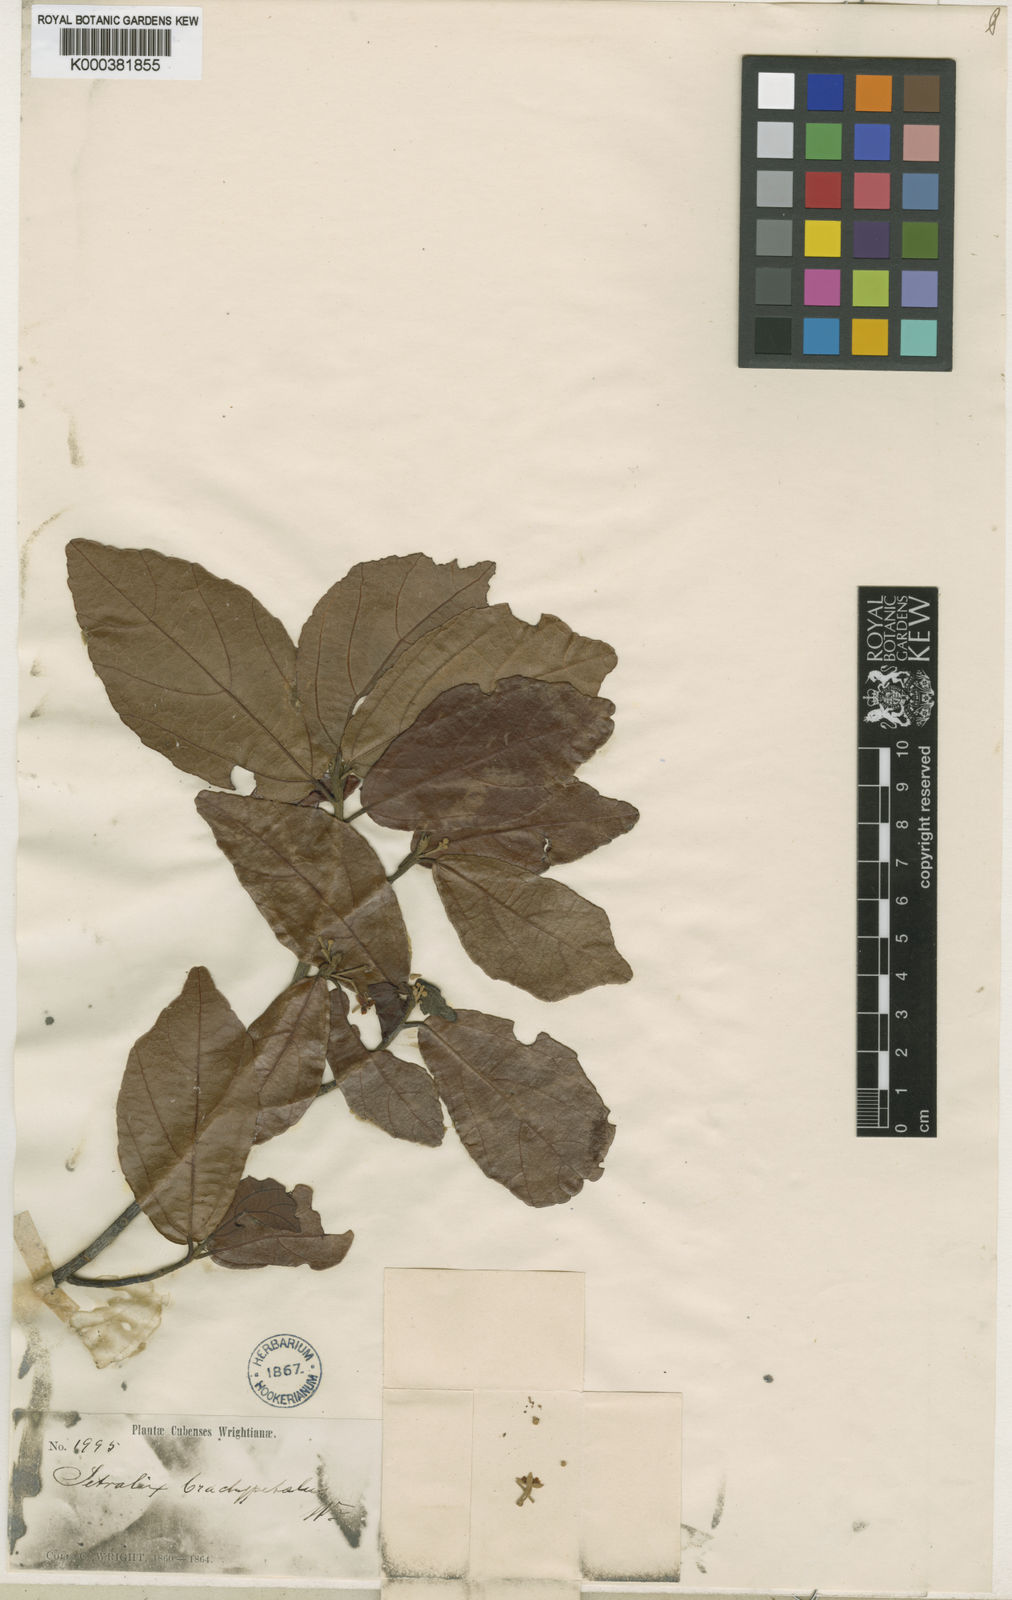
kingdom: Plantae
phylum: Tracheophyta
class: Magnoliopsida
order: Malvales
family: Malvaceae
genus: Tetralix
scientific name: Tetralix brachypetalus
